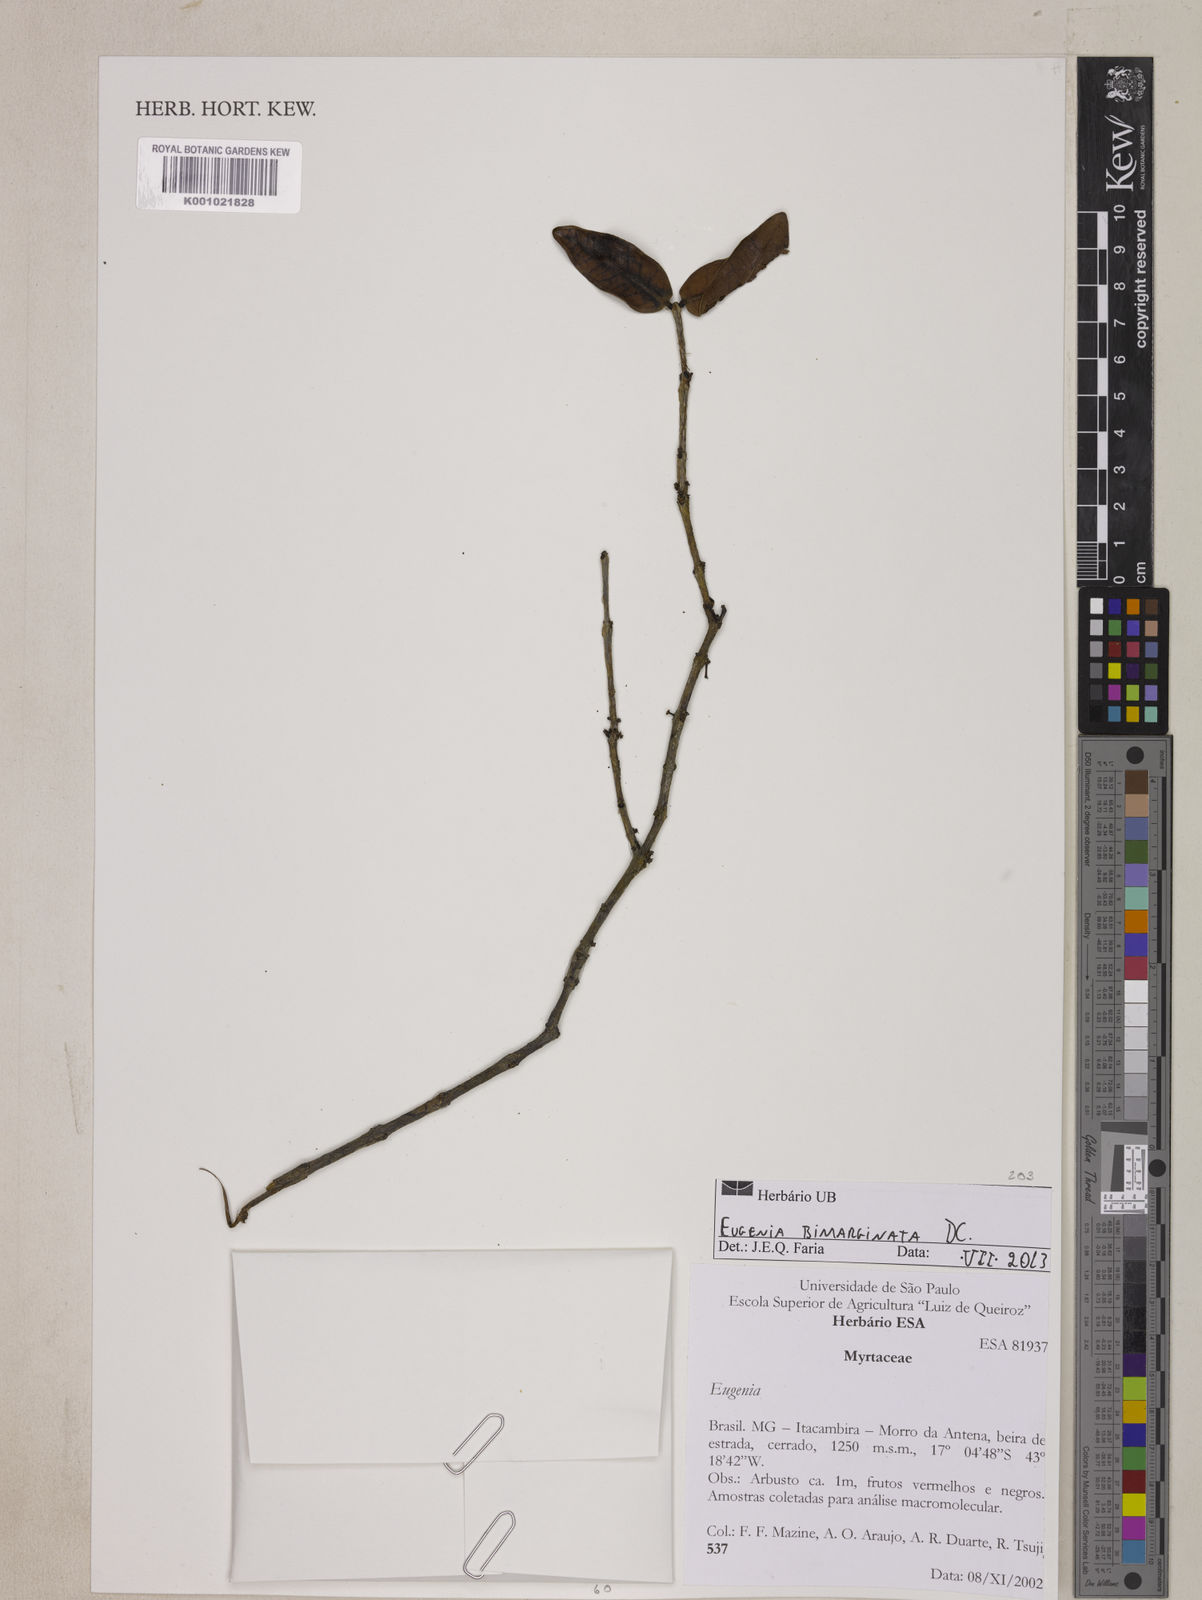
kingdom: Plantae
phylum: Tracheophyta
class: Magnoliopsida
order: Myrtales
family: Myrtaceae
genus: Eugenia
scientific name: Eugenia bimarginata
